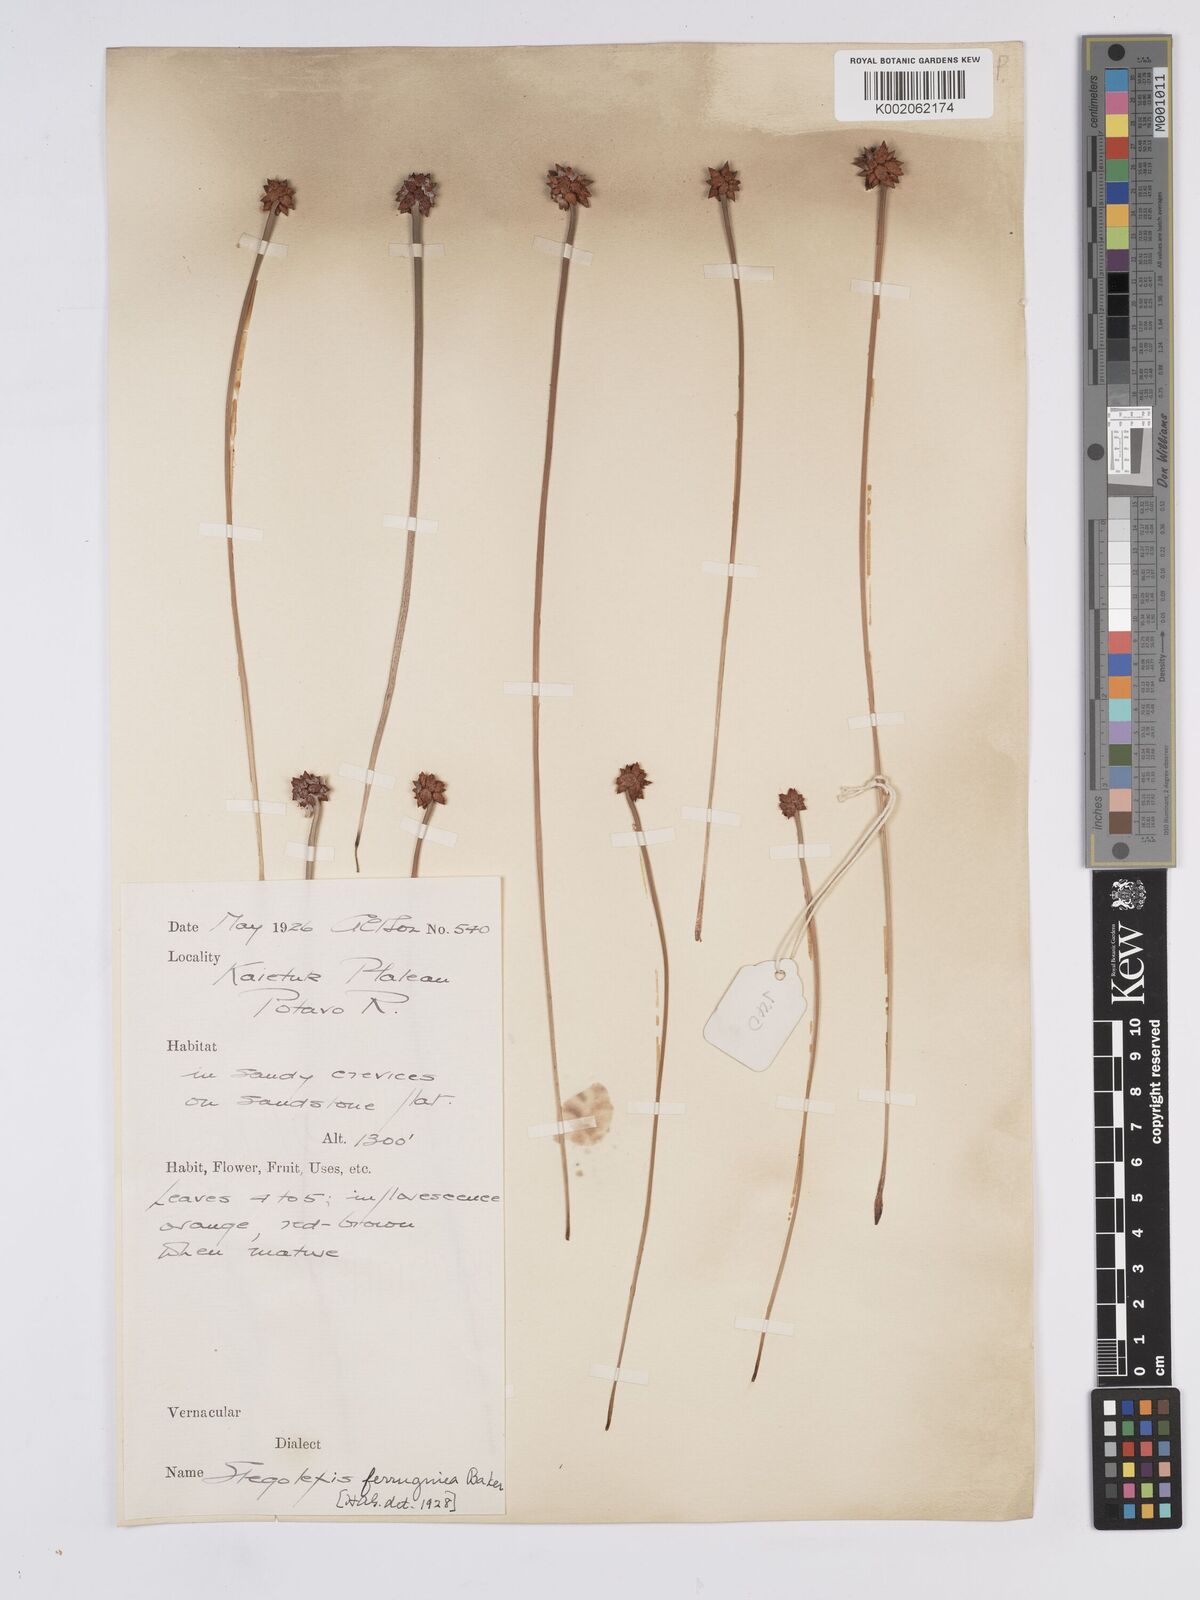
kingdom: Plantae
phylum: Tracheophyta
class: Liliopsida
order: Poales
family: Rapateaceae
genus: Stegolepis
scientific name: Stegolepis ferruginea
